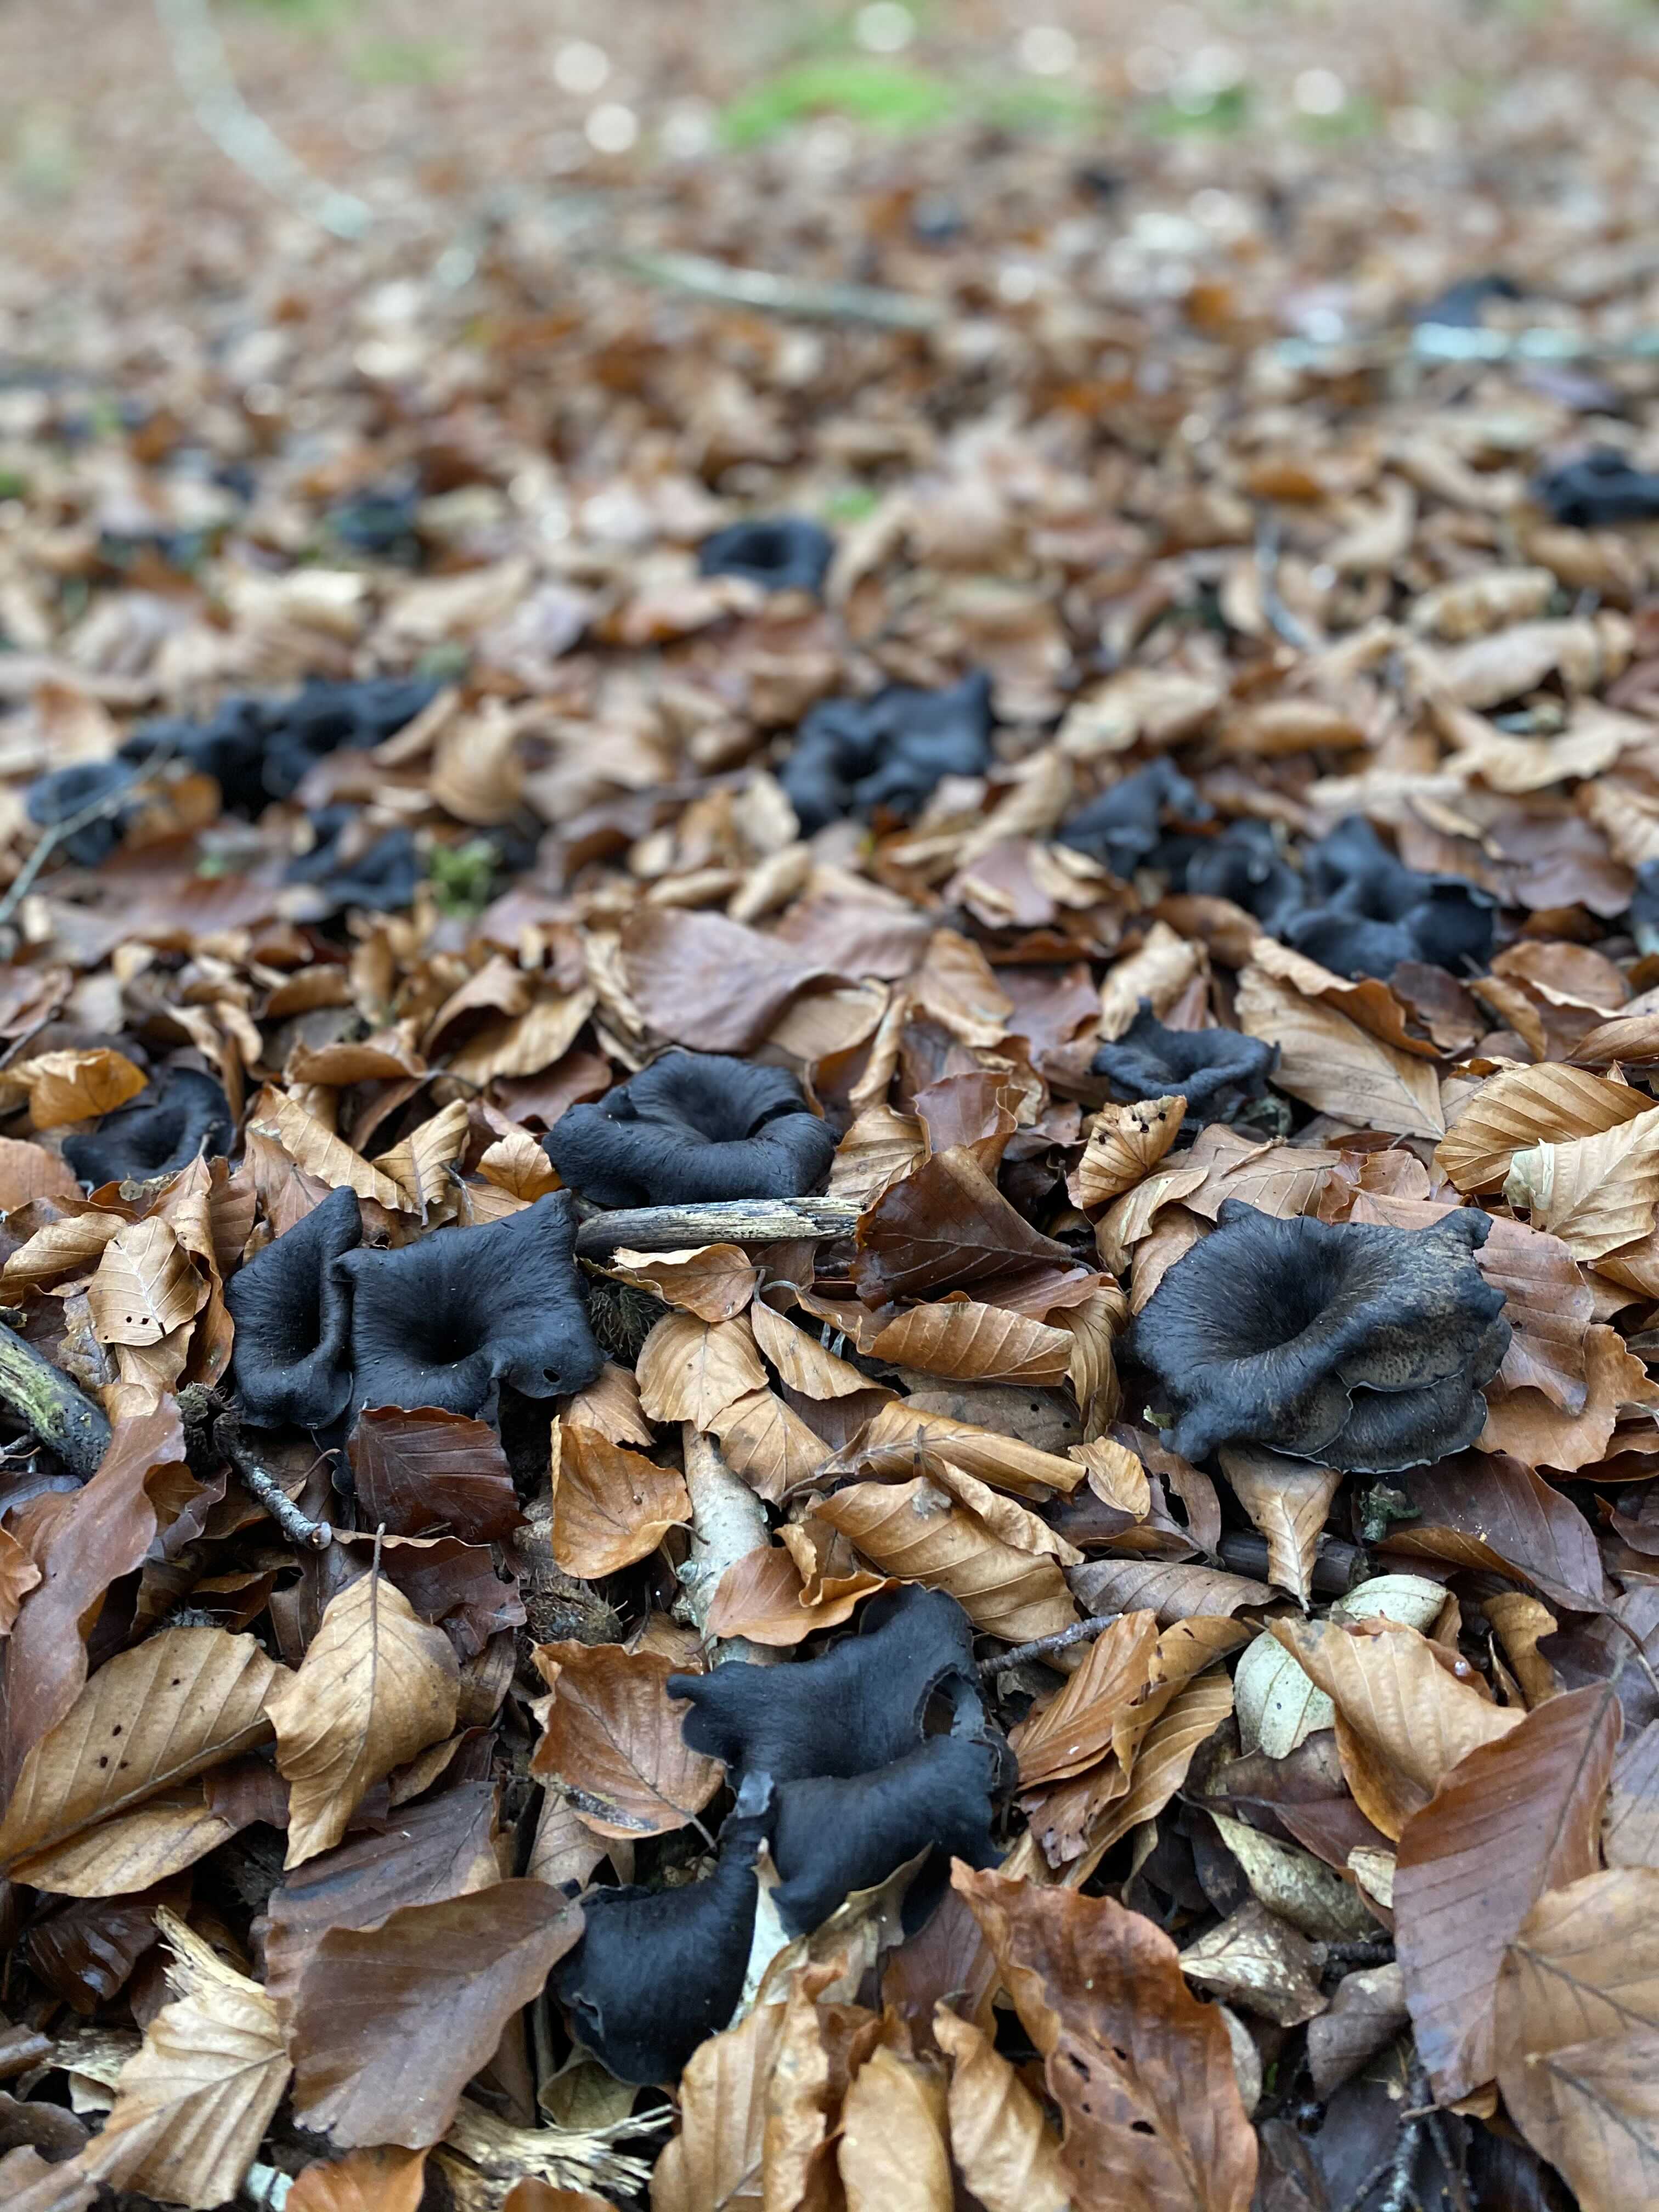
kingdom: Fungi
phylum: Basidiomycota
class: Agaricomycetes
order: Cantharellales
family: Hydnaceae
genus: Craterellus
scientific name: Craterellus cornucopioides
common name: trompetsvamp
